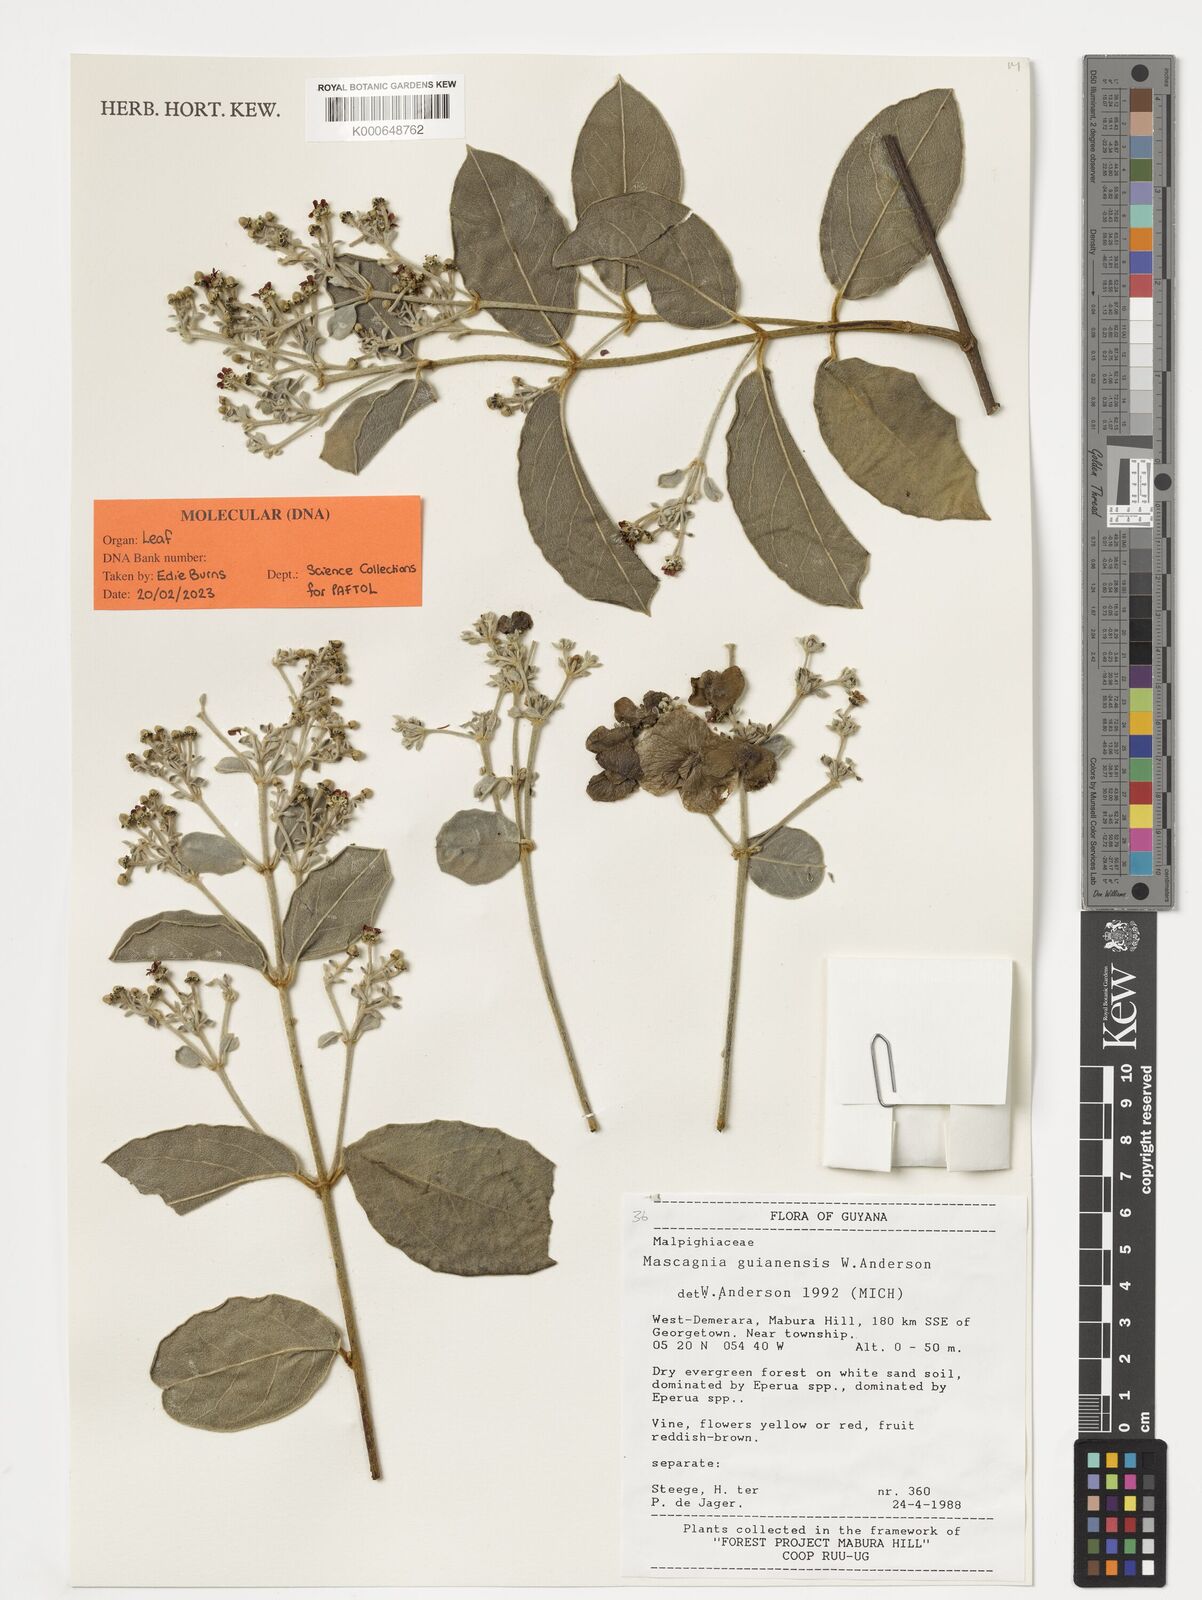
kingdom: Plantae
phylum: Tracheophyta
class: Magnoliopsida
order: Malpighiales
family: Malpighiaceae
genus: Malpighiodes
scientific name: Malpighiodes guianensis
